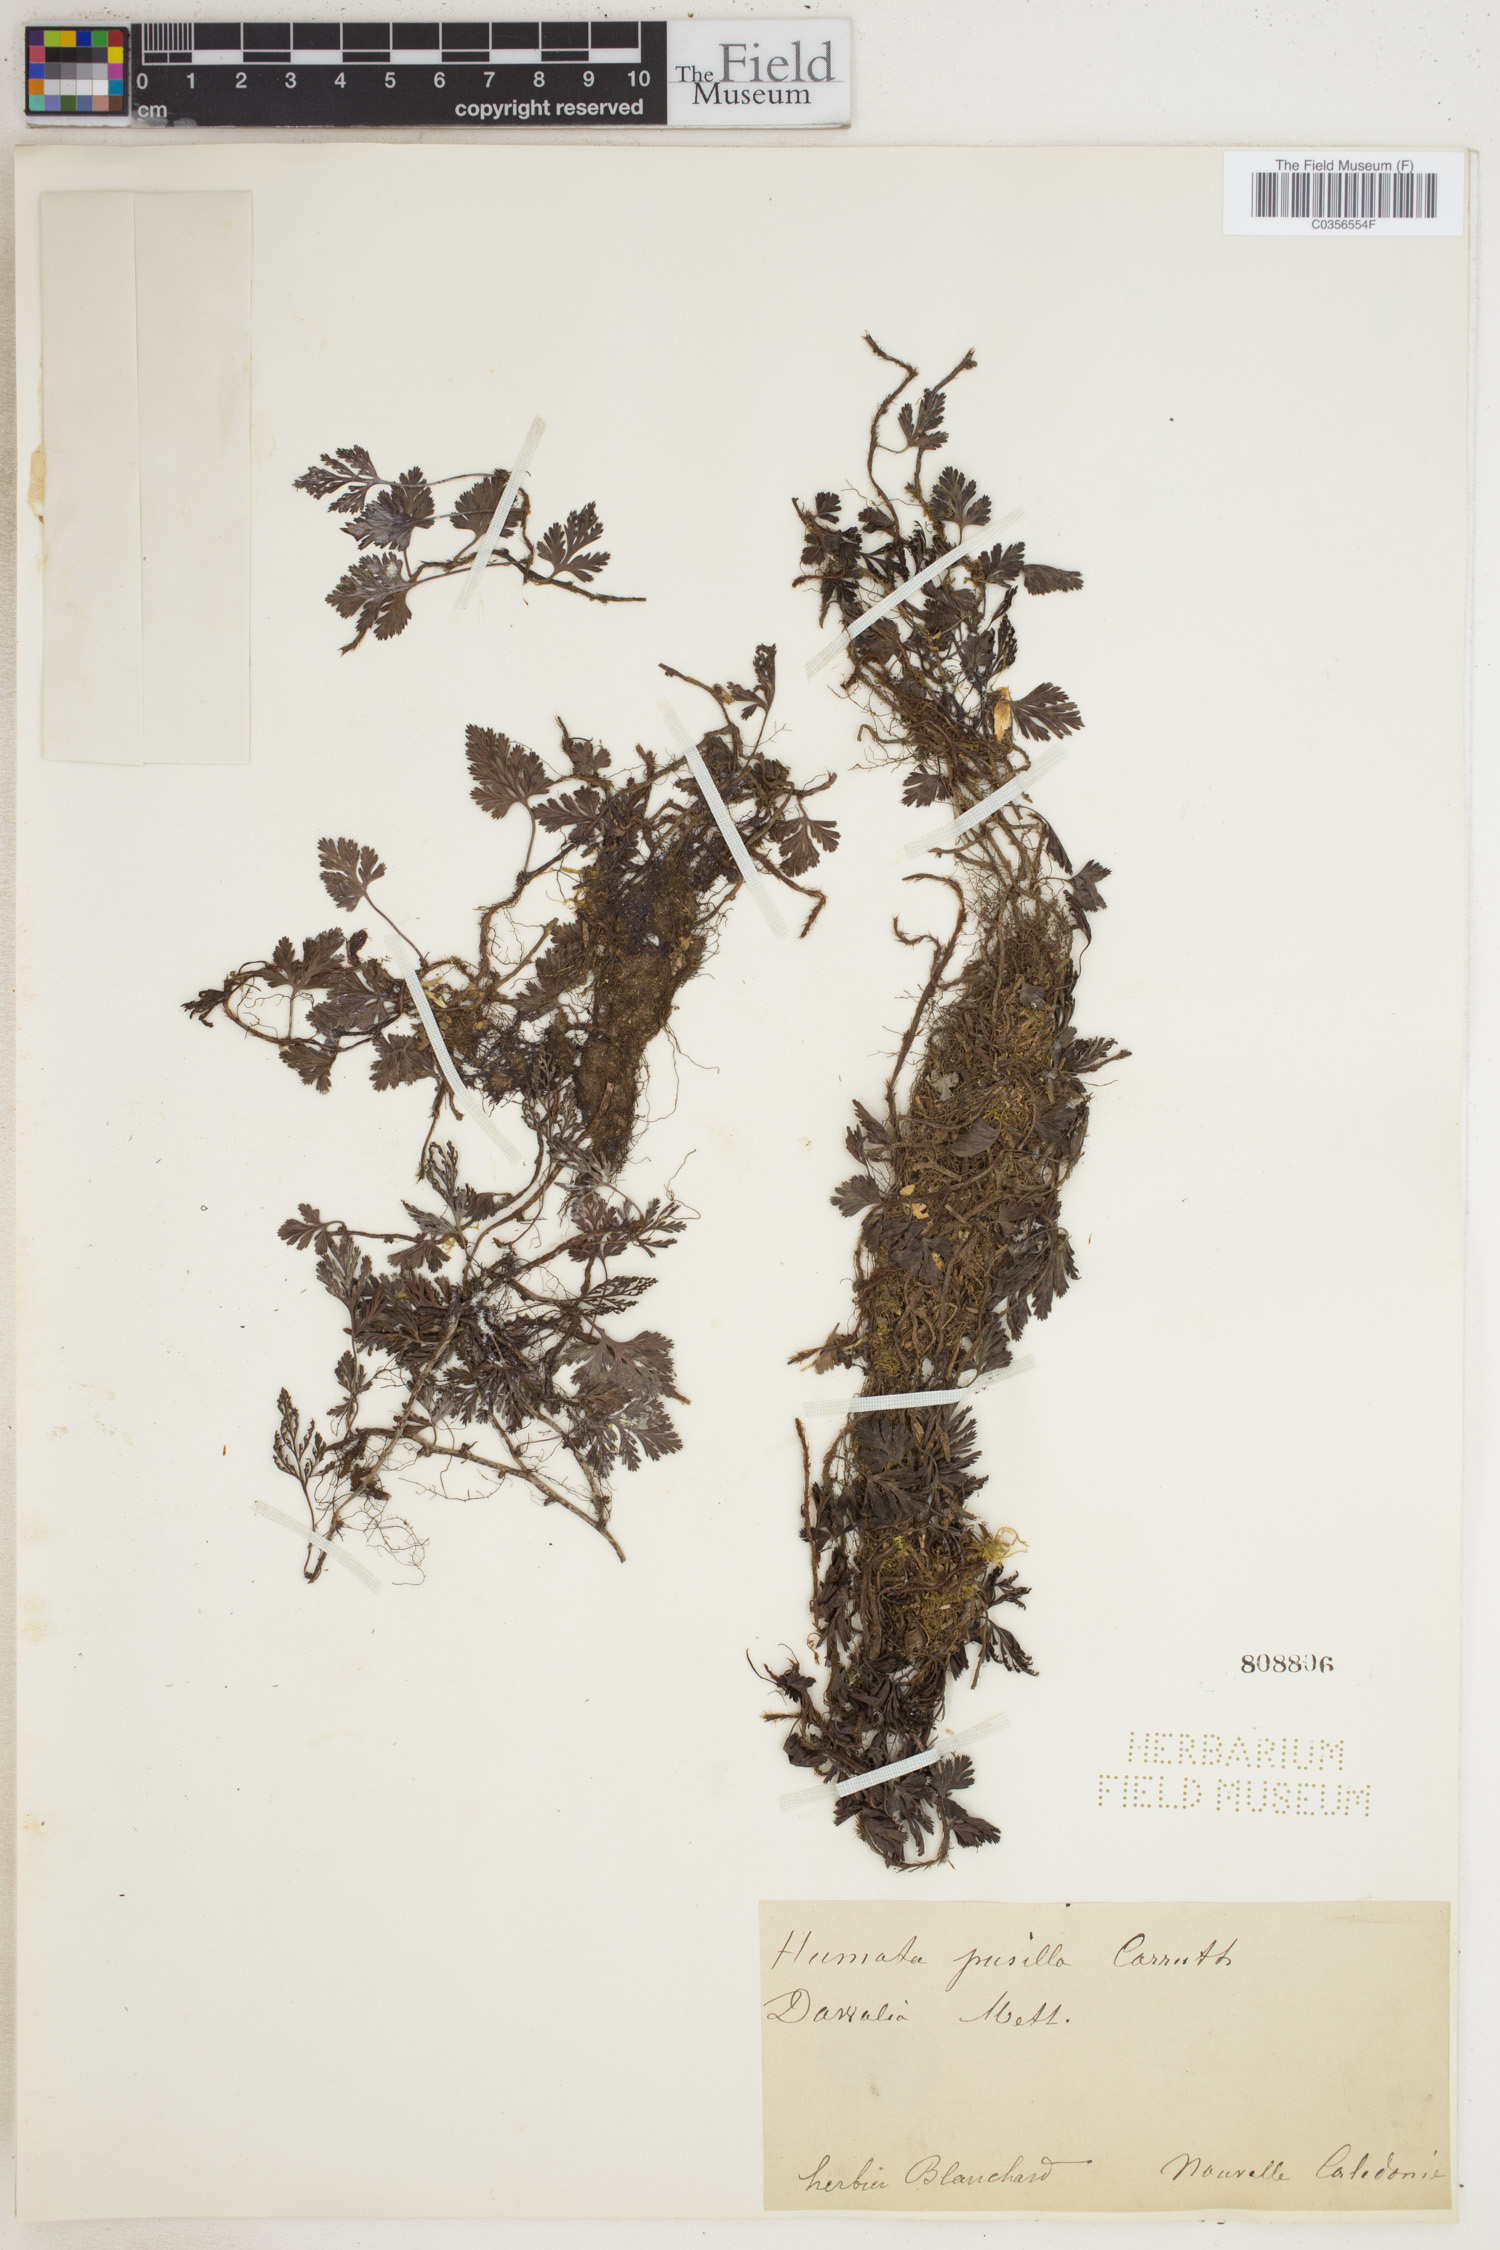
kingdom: Plantae
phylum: Tracheophyta
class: Polypodiopsida
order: Polypodiales
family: Davalliaceae
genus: Davallia
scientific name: Davallia
